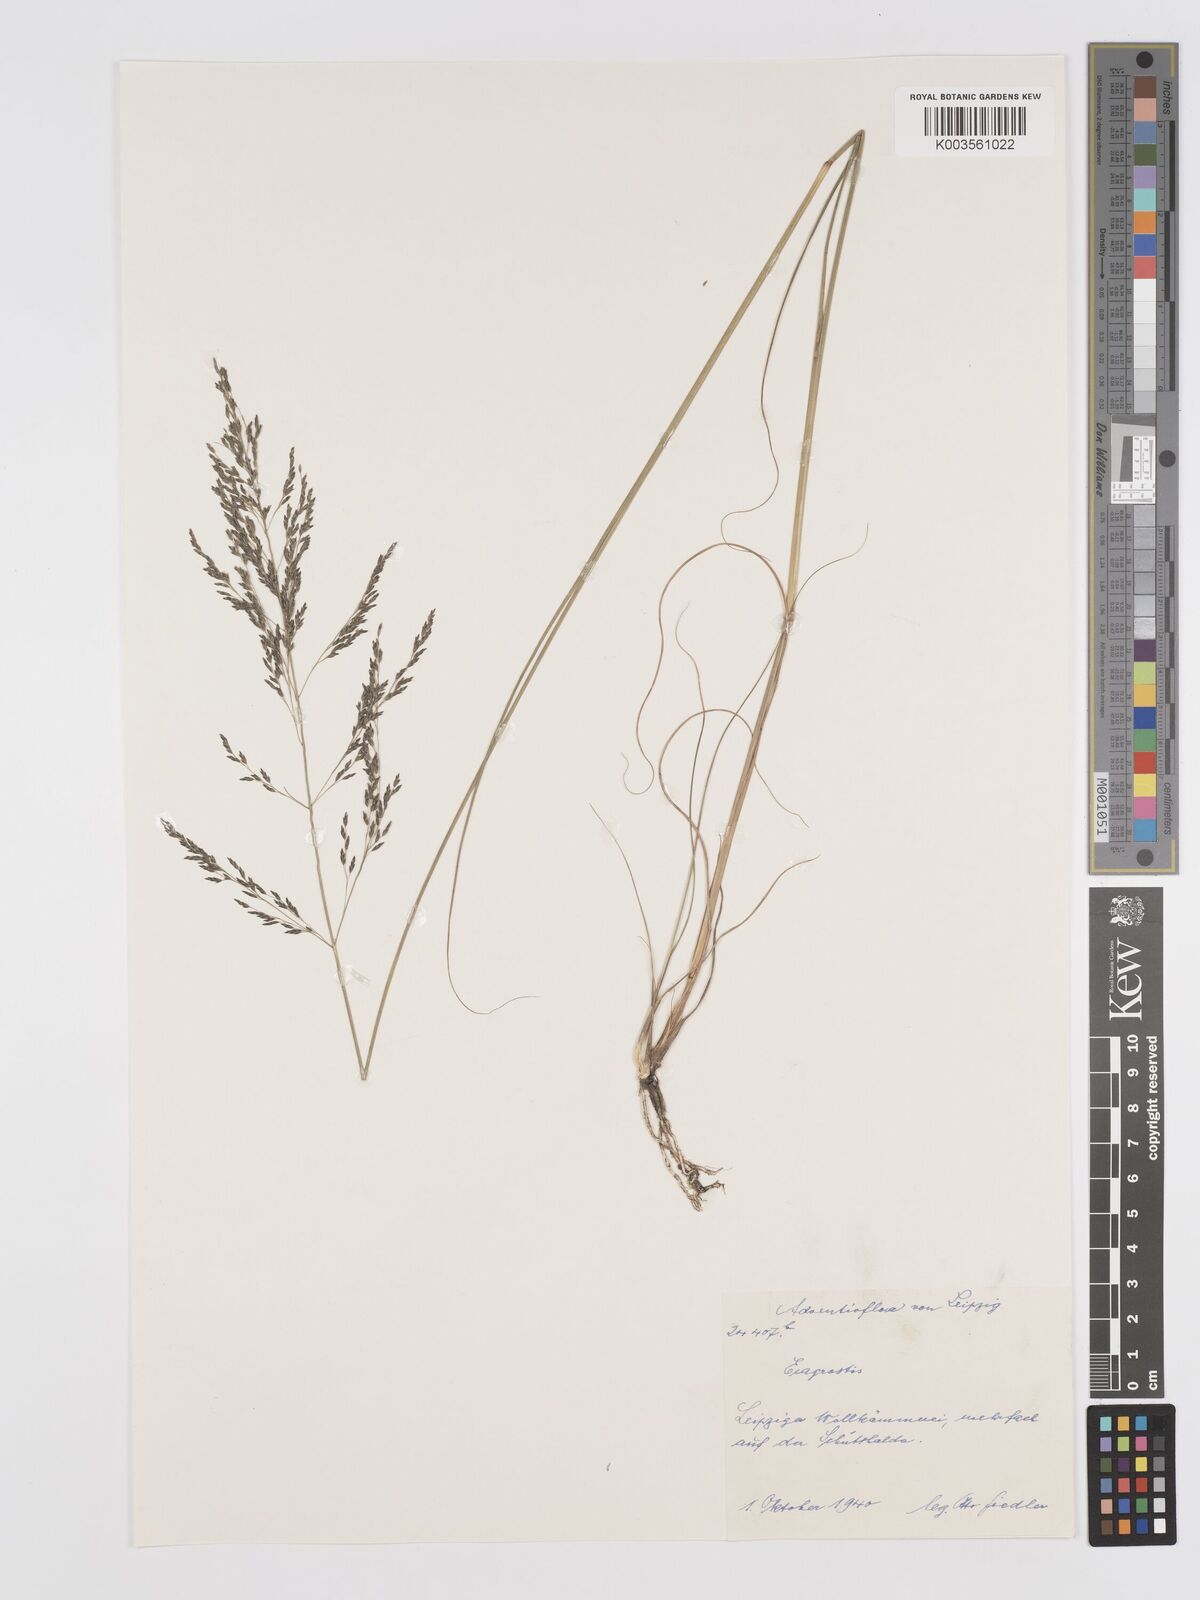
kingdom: Plantae
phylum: Tracheophyta
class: Liliopsida
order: Poales
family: Poaceae
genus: Eragrostis
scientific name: Eragrostis
